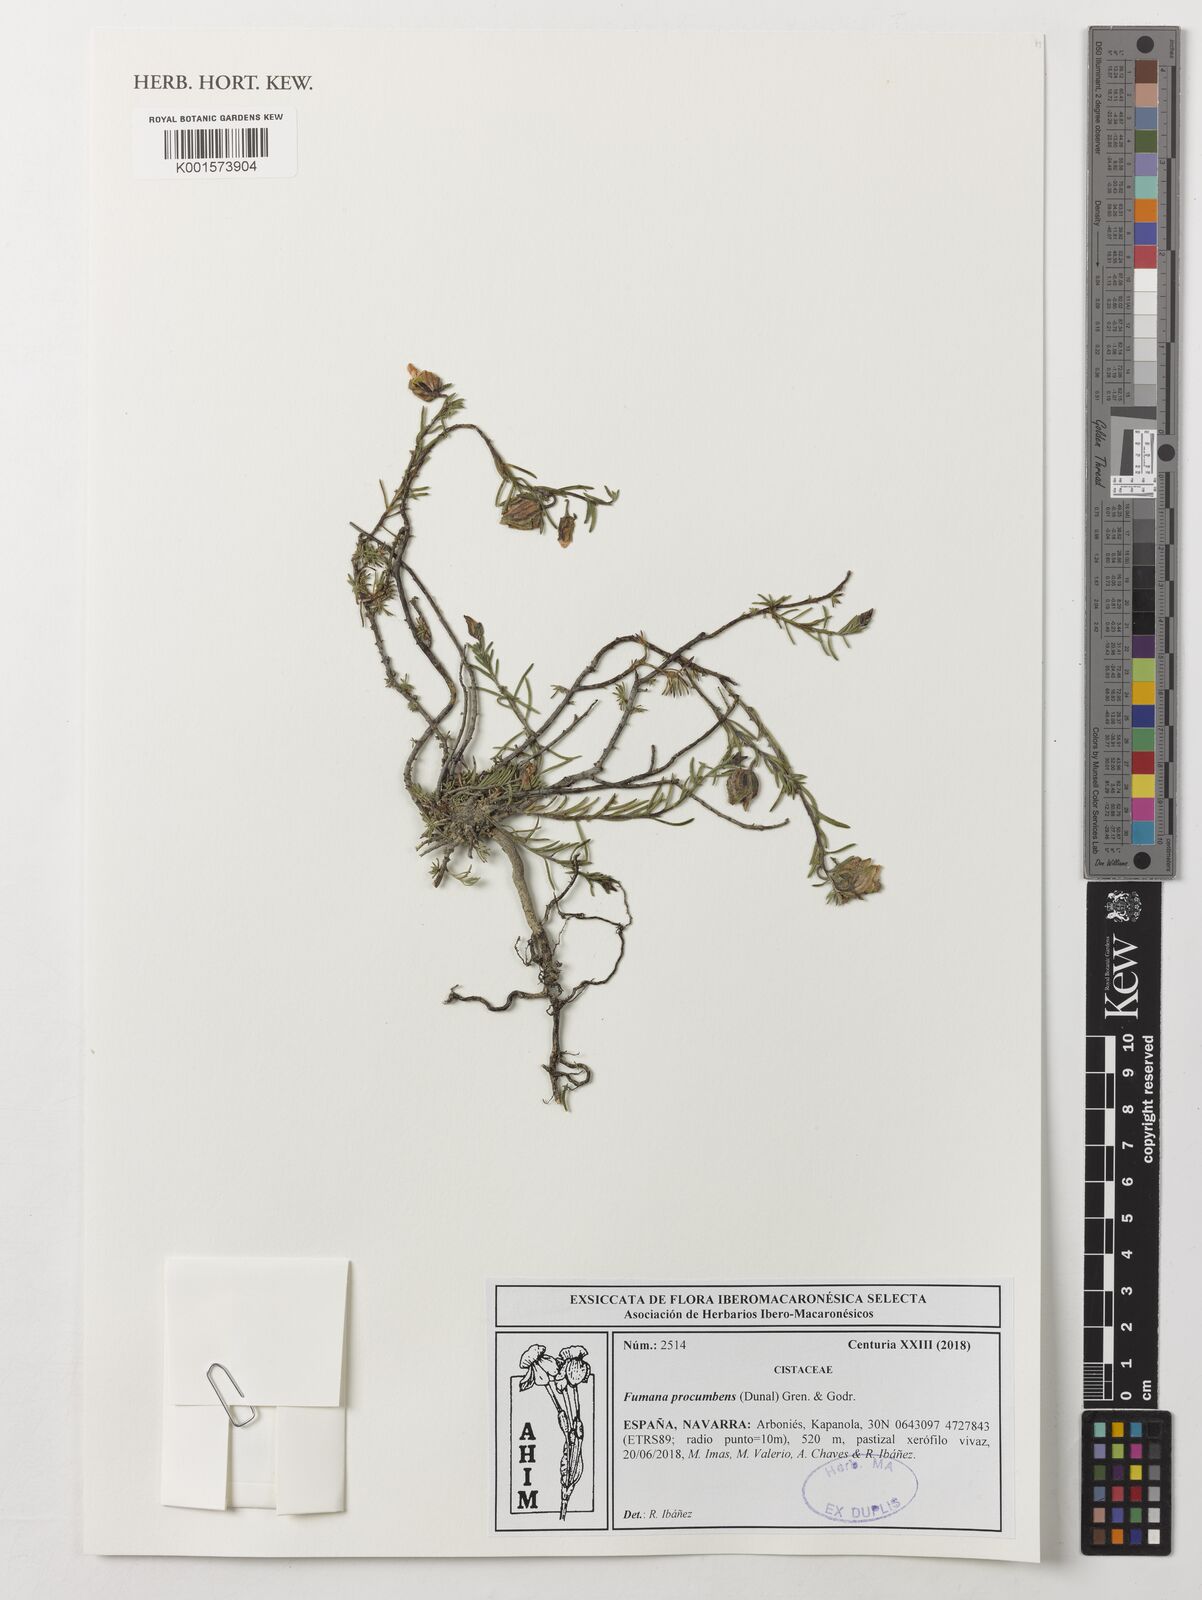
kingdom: Plantae
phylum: Tracheophyta
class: Magnoliopsida
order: Malvales
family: Cistaceae
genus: Fumana
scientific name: Fumana procumbens
